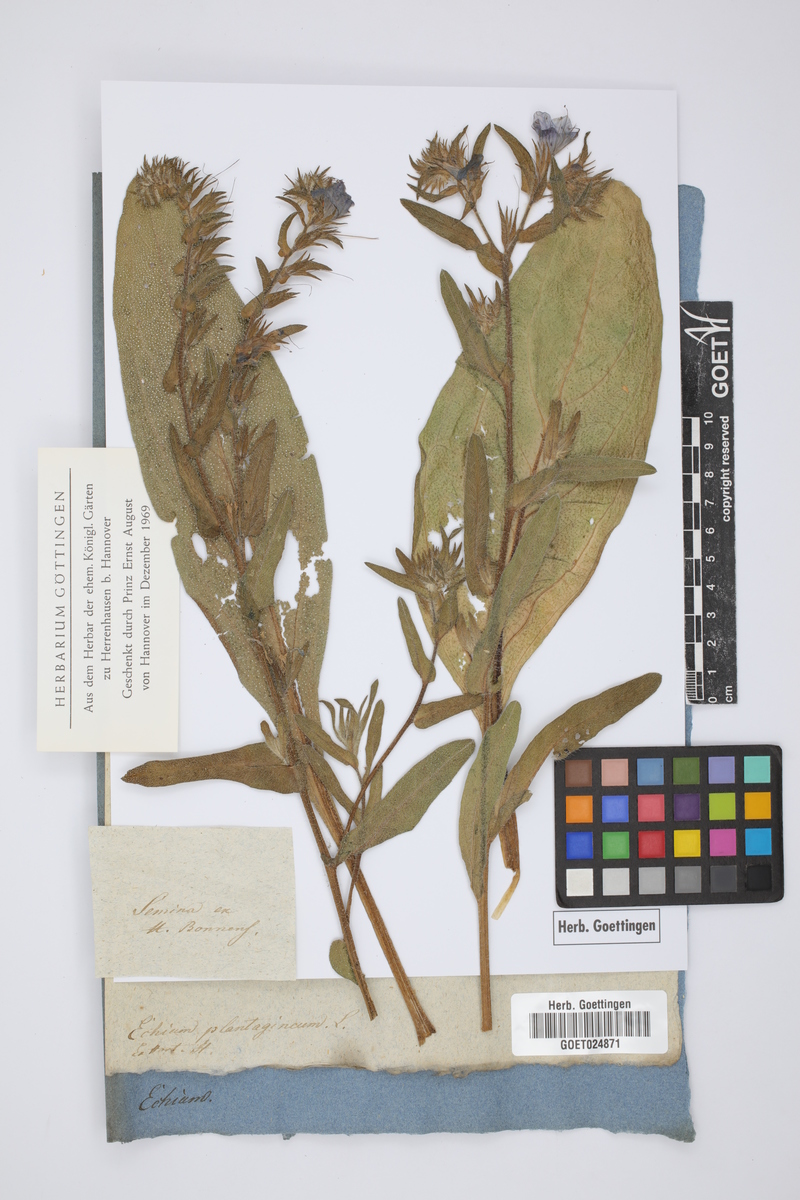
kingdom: Plantae
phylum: Tracheophyta
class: Magnoliopsida
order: Boraginales
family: Boraginaceae
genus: Echium
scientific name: Echium plantagineum
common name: Purple viper's-bugloss
